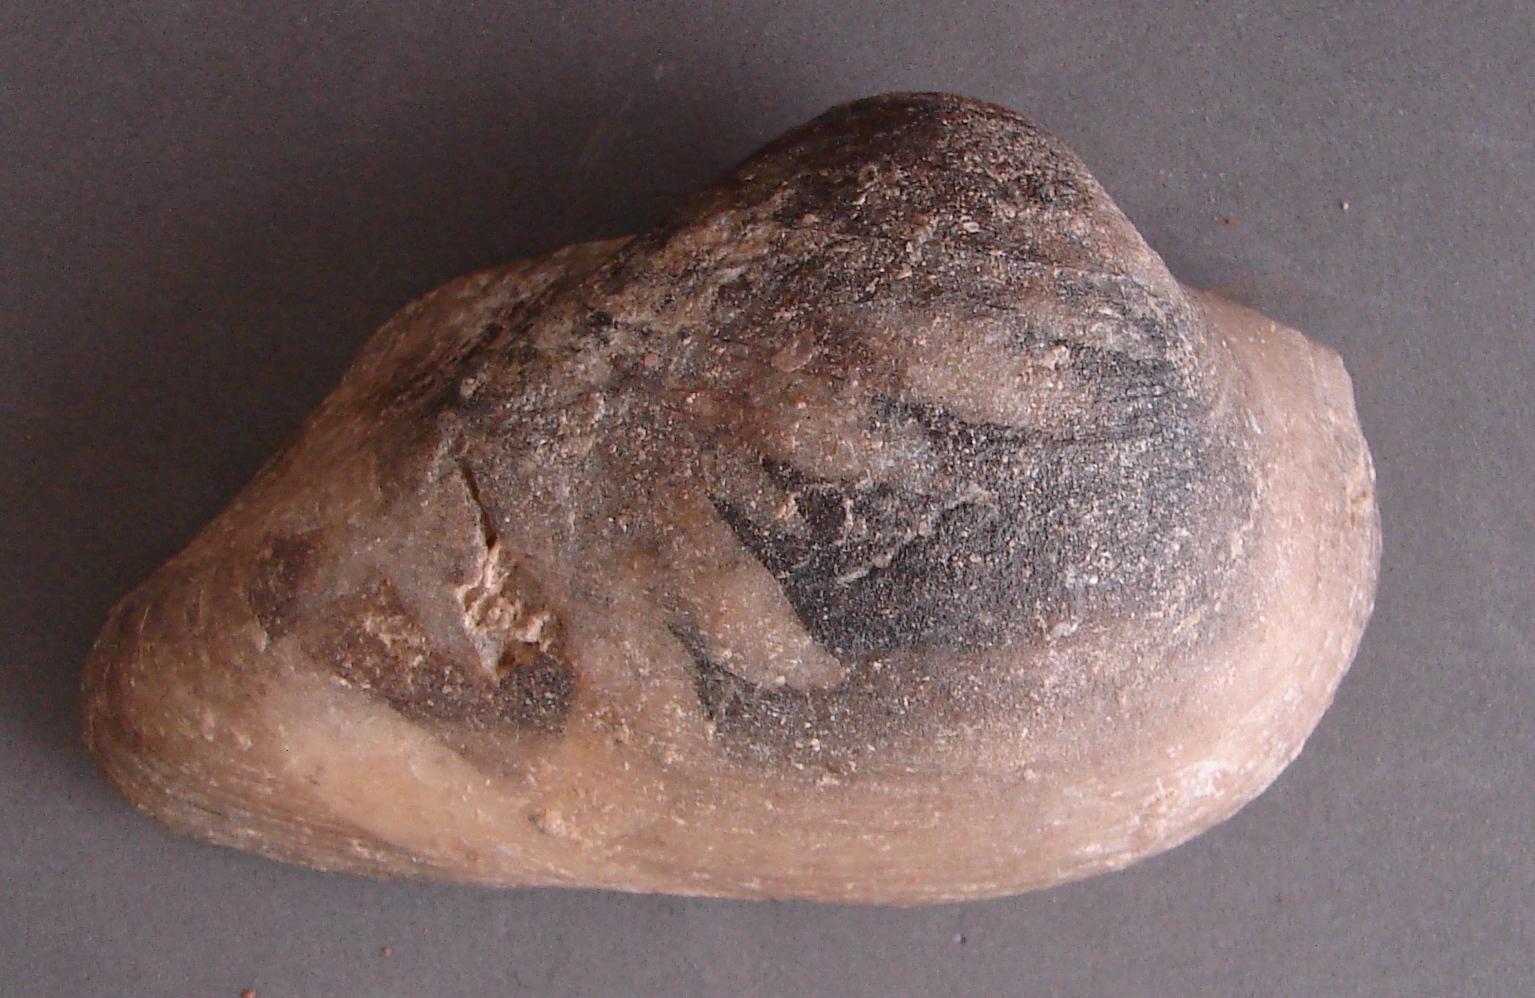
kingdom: Animalia
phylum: Mollusca
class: Bivalvia
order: Arcida
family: Cucullaeidae
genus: Cucullaea
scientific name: Cucullaea
